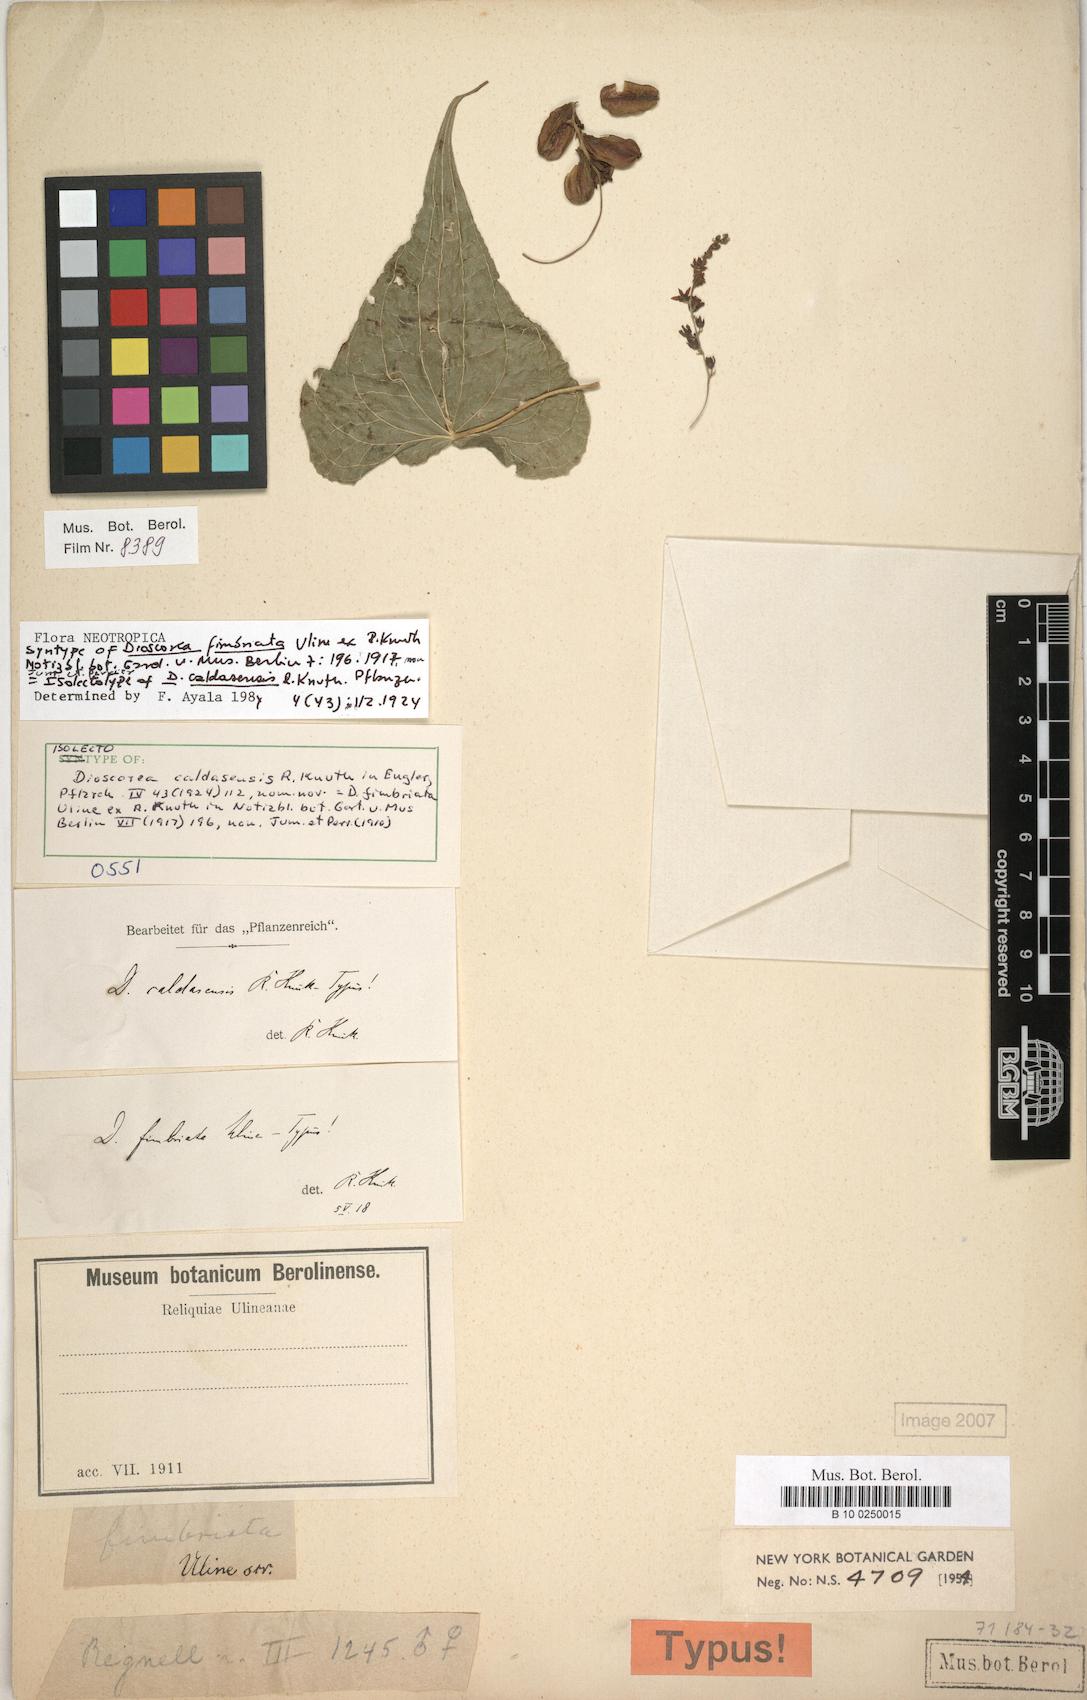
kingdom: Plantae
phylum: Tracheophyta
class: Liliopsida
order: Dioscoreales
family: Dioscoreaceae
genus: Dioscorea
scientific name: Dioscorea caldasensis
